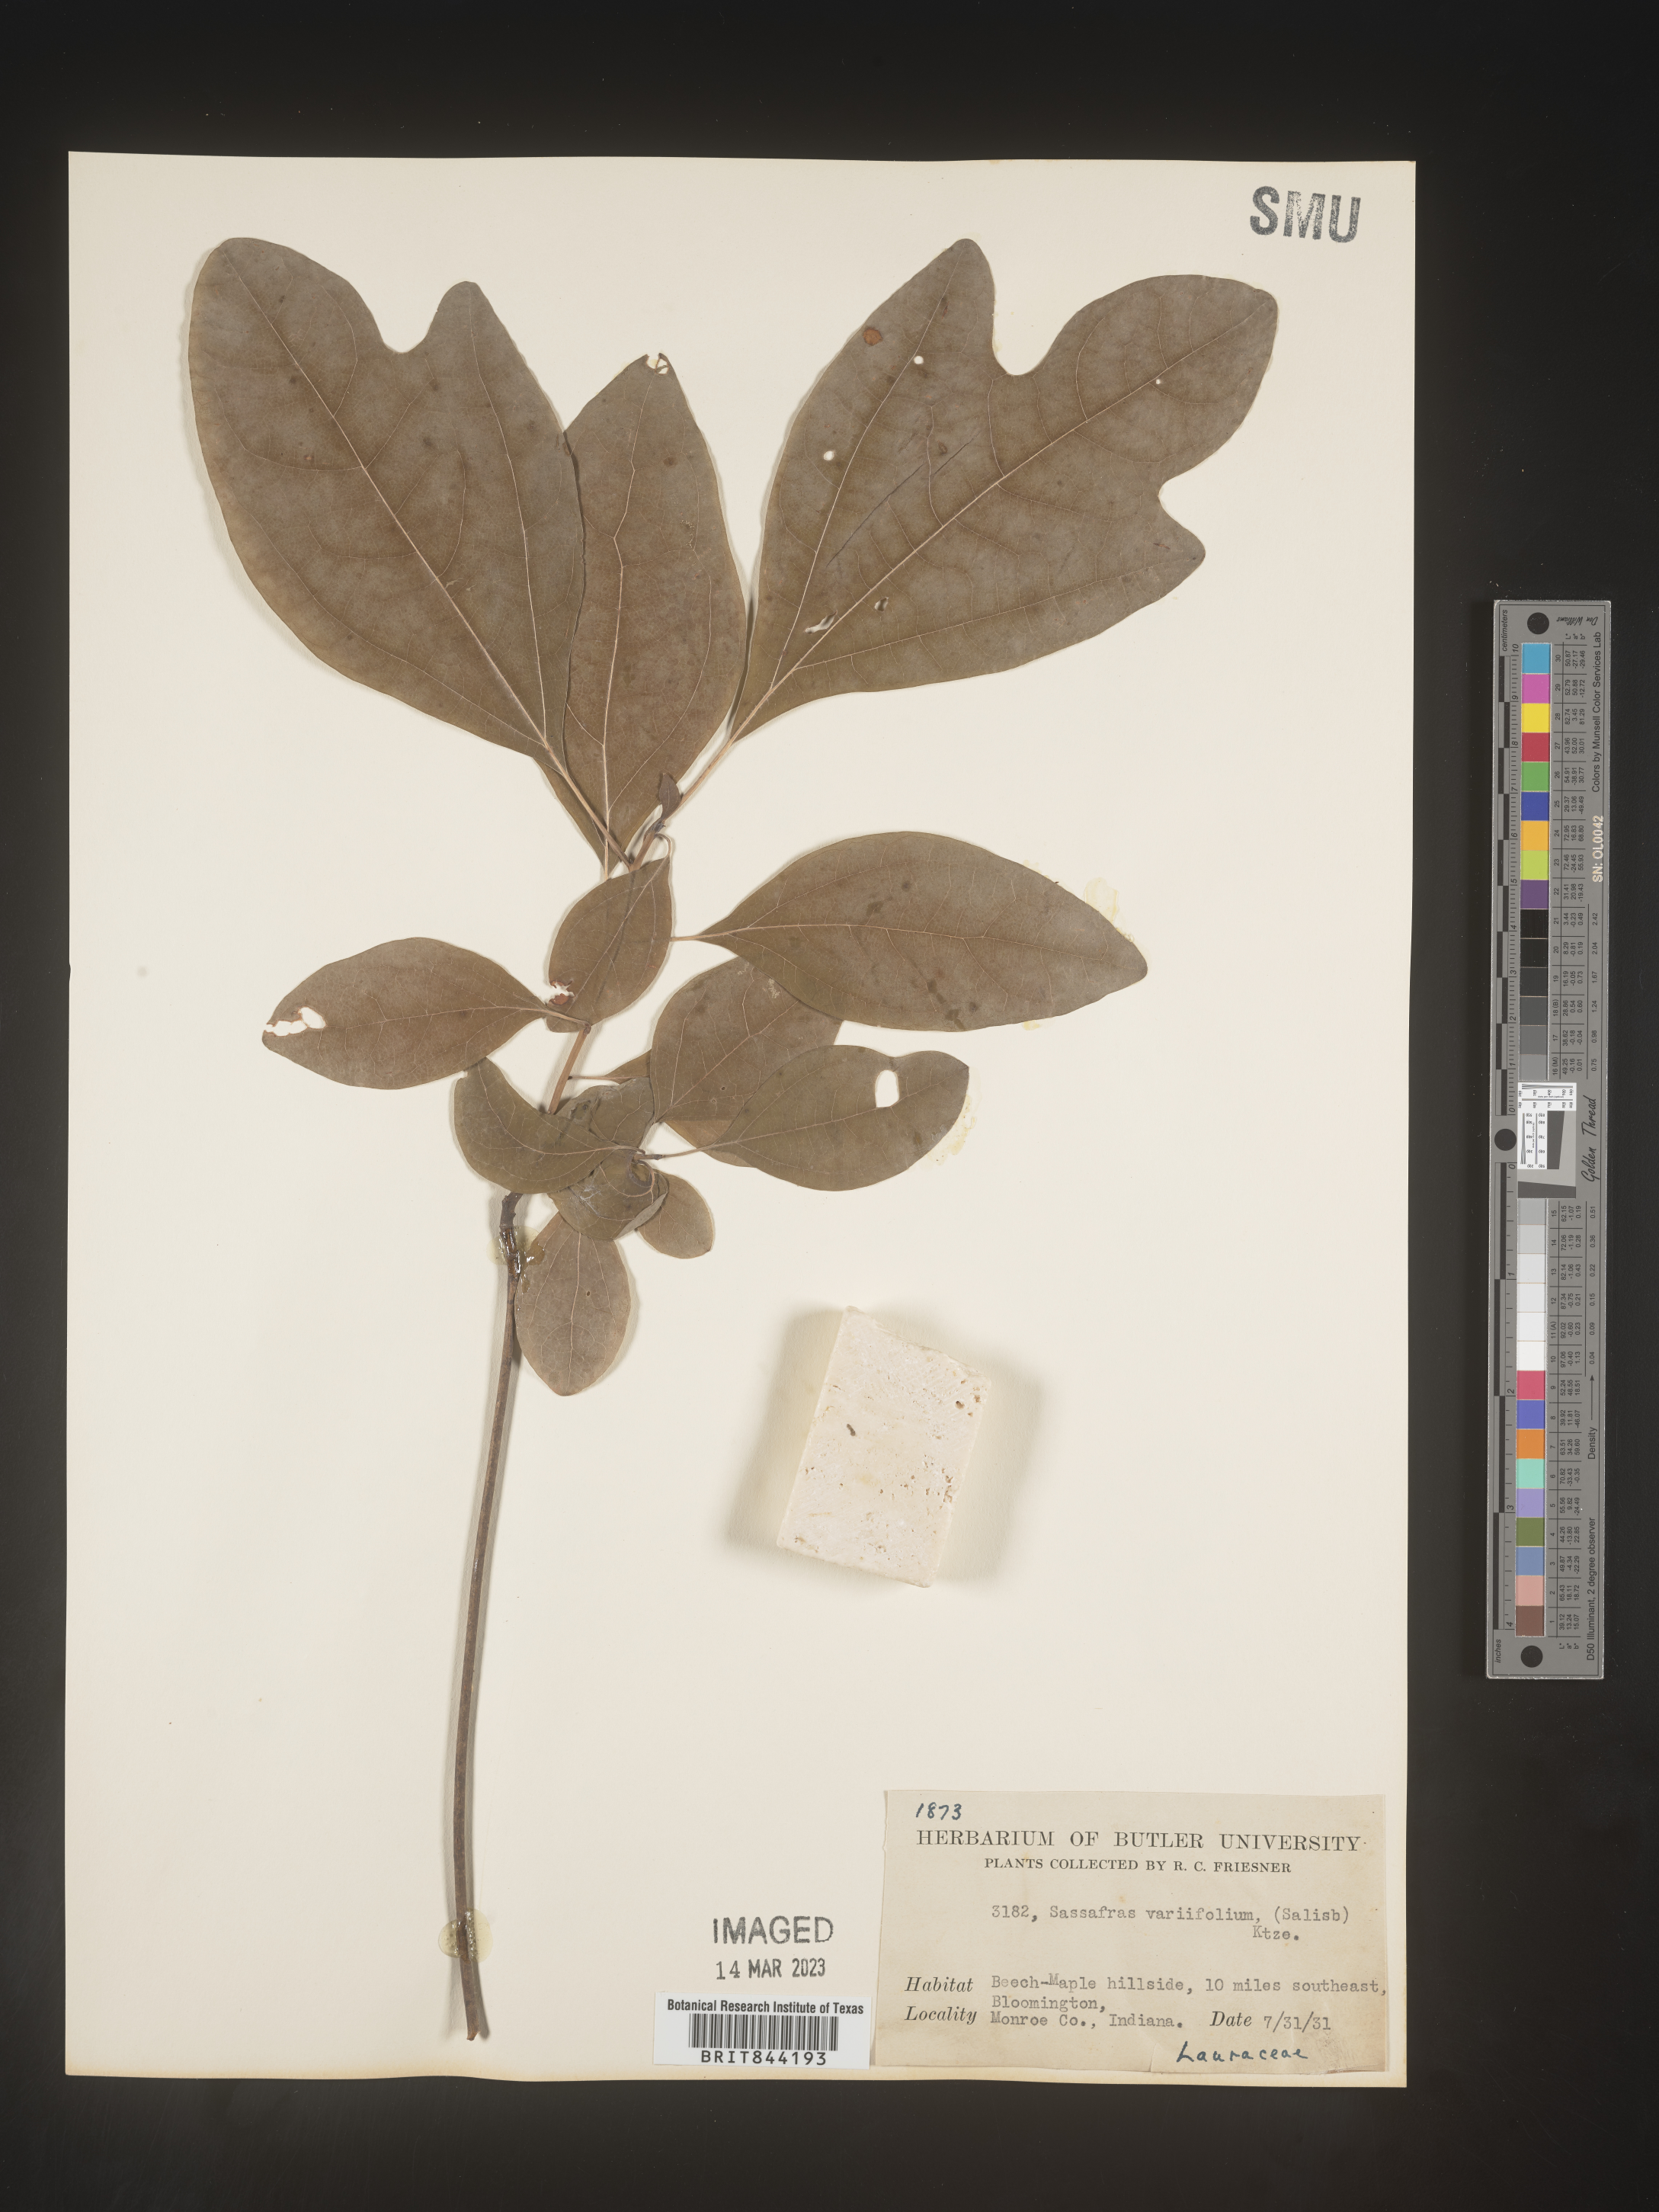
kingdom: Plantae
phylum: Tracheophyta
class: Magnoliopsida
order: Laurales
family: Lauraceae
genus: Sassafras
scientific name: Sassafras albidum
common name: Sassafras
